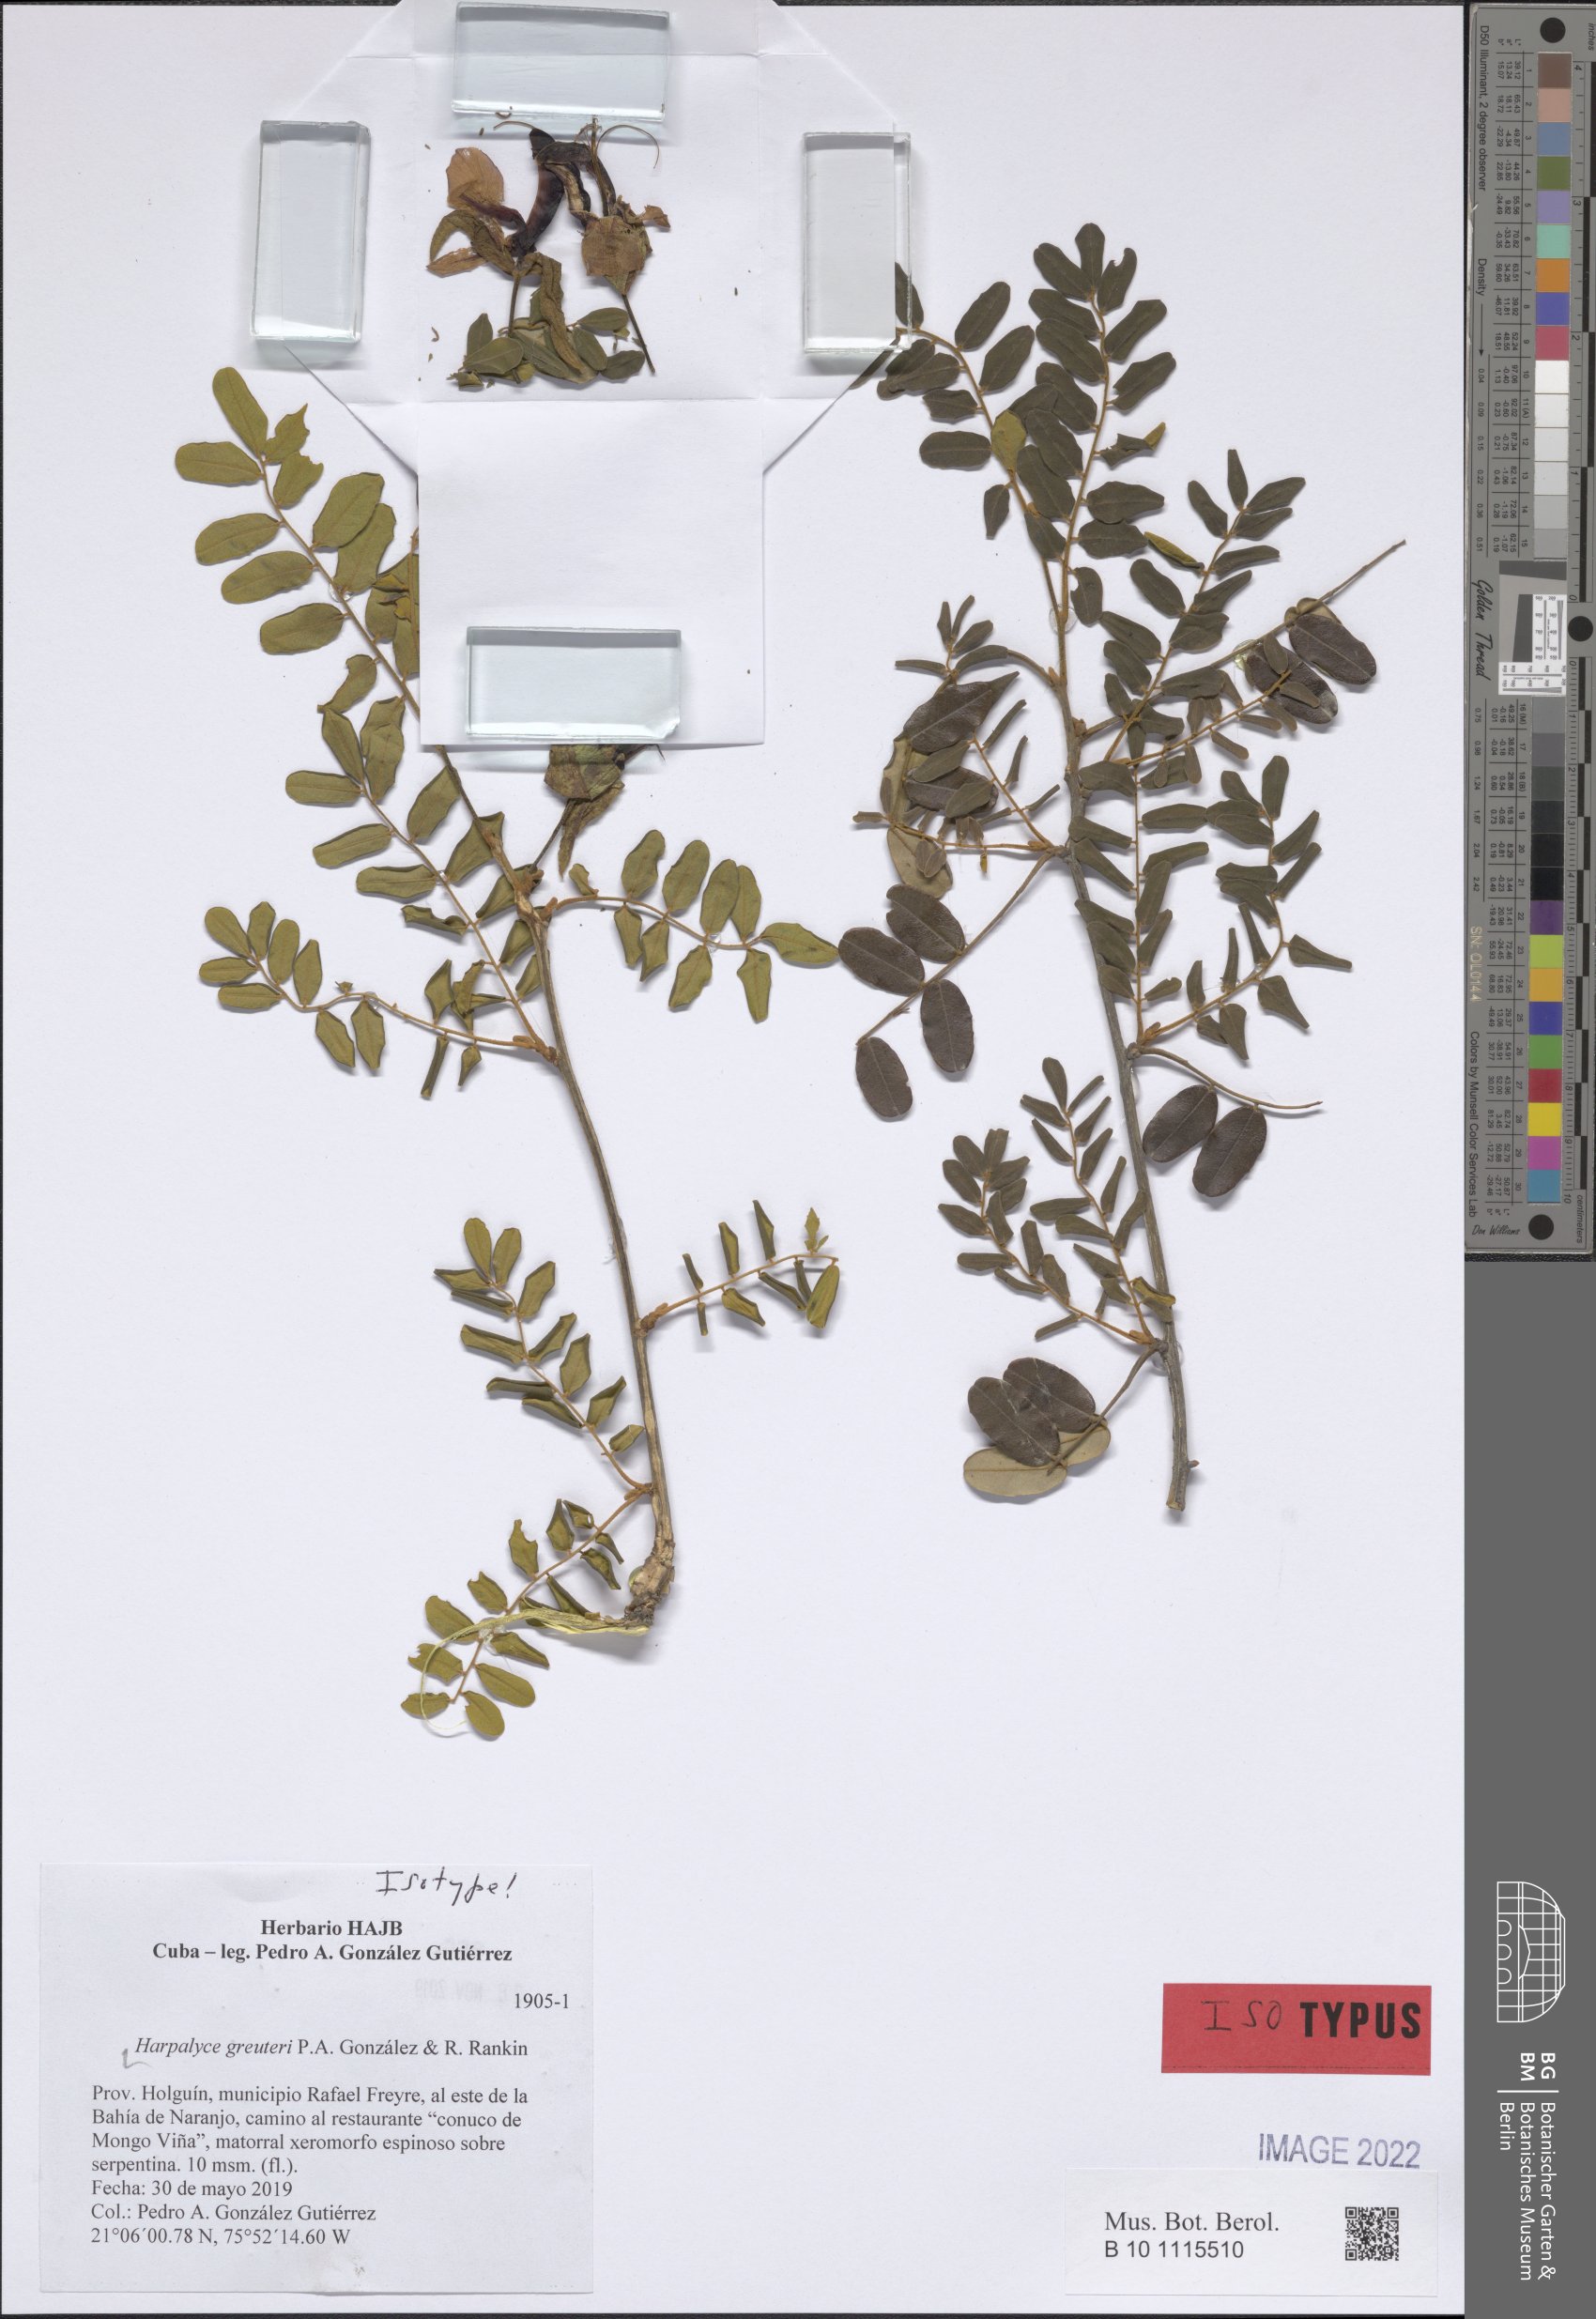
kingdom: Plantae
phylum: Tracheophyta
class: Magnoliopsida
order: Fabales
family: Fabaceae
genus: Harpalyce
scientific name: Harpalyce greuteri
